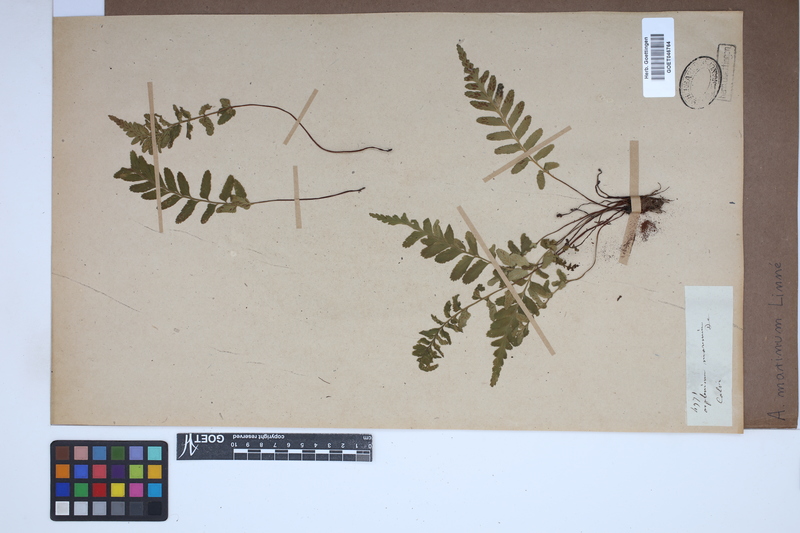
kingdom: Plantae
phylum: Tracheophyta
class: Polypodiopsida
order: Polypodiales
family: Aspleniaceae
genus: Asplenium
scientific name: Asplenium marinum
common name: Sea spleenwort
